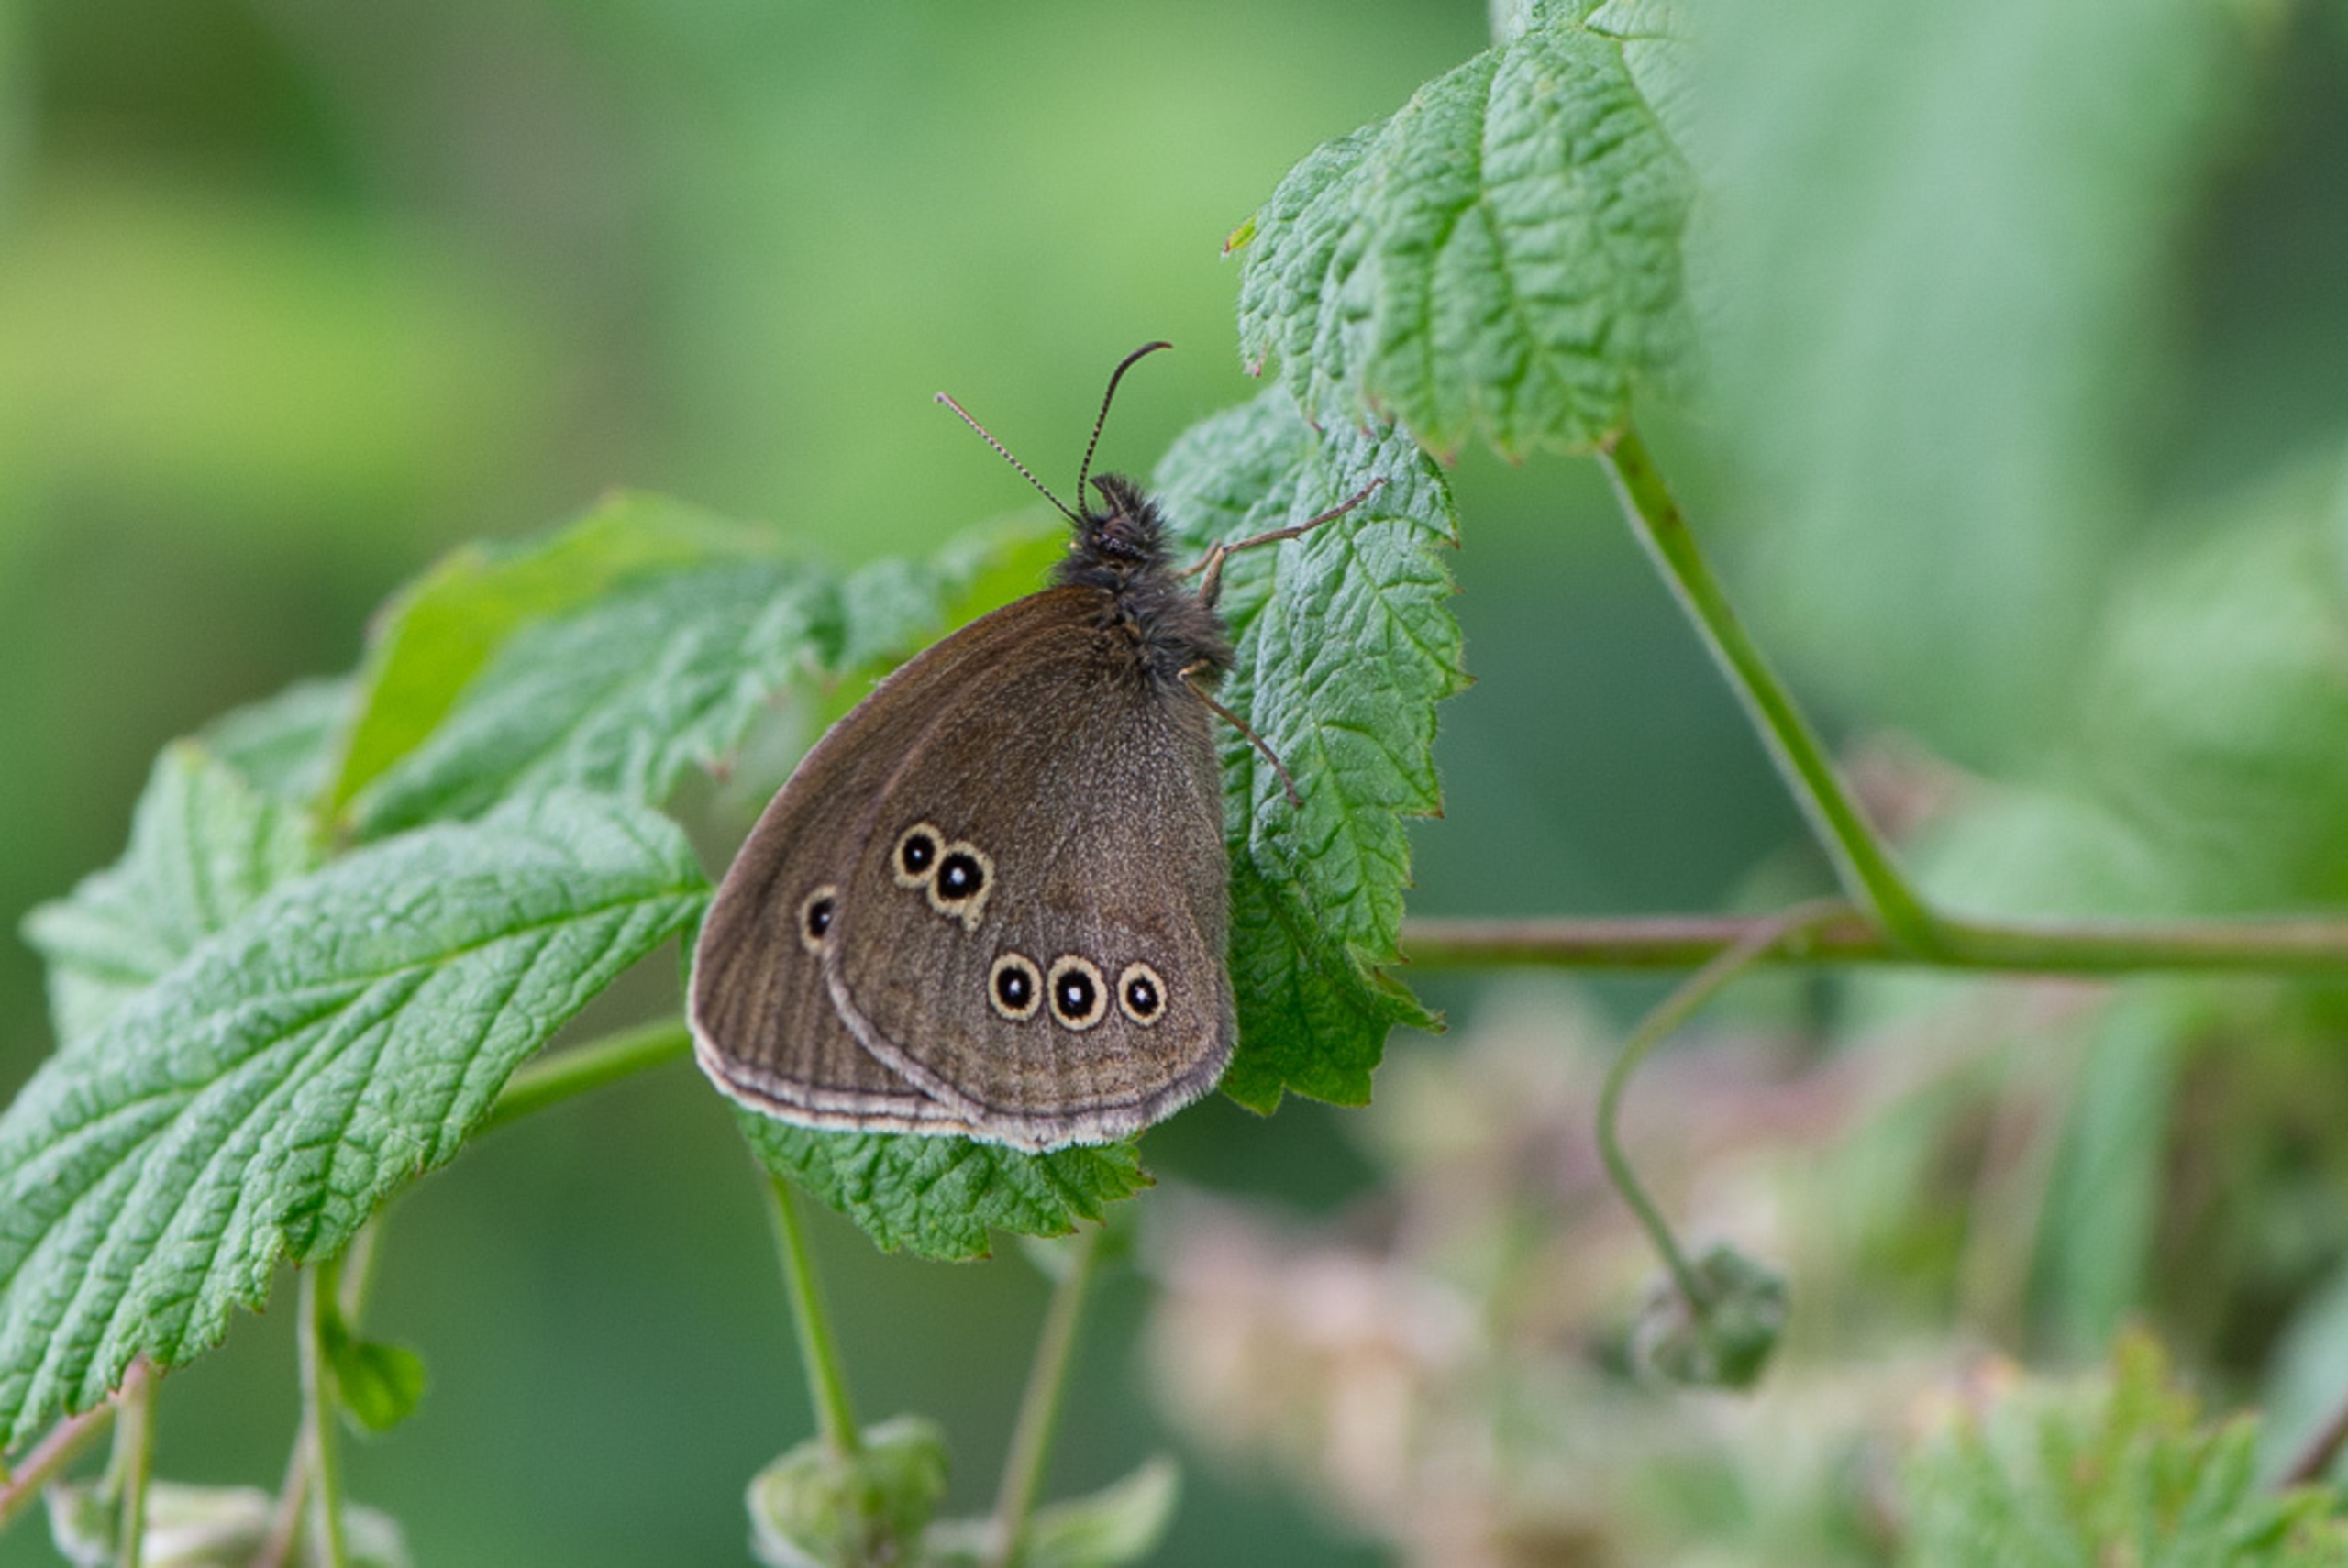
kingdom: Animalia
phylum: Arthropoda
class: Insecta
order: Lepidoptera
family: Nymphalidae
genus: Aphantopus
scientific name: Aphantopus hyperantus
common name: Engrandøje
